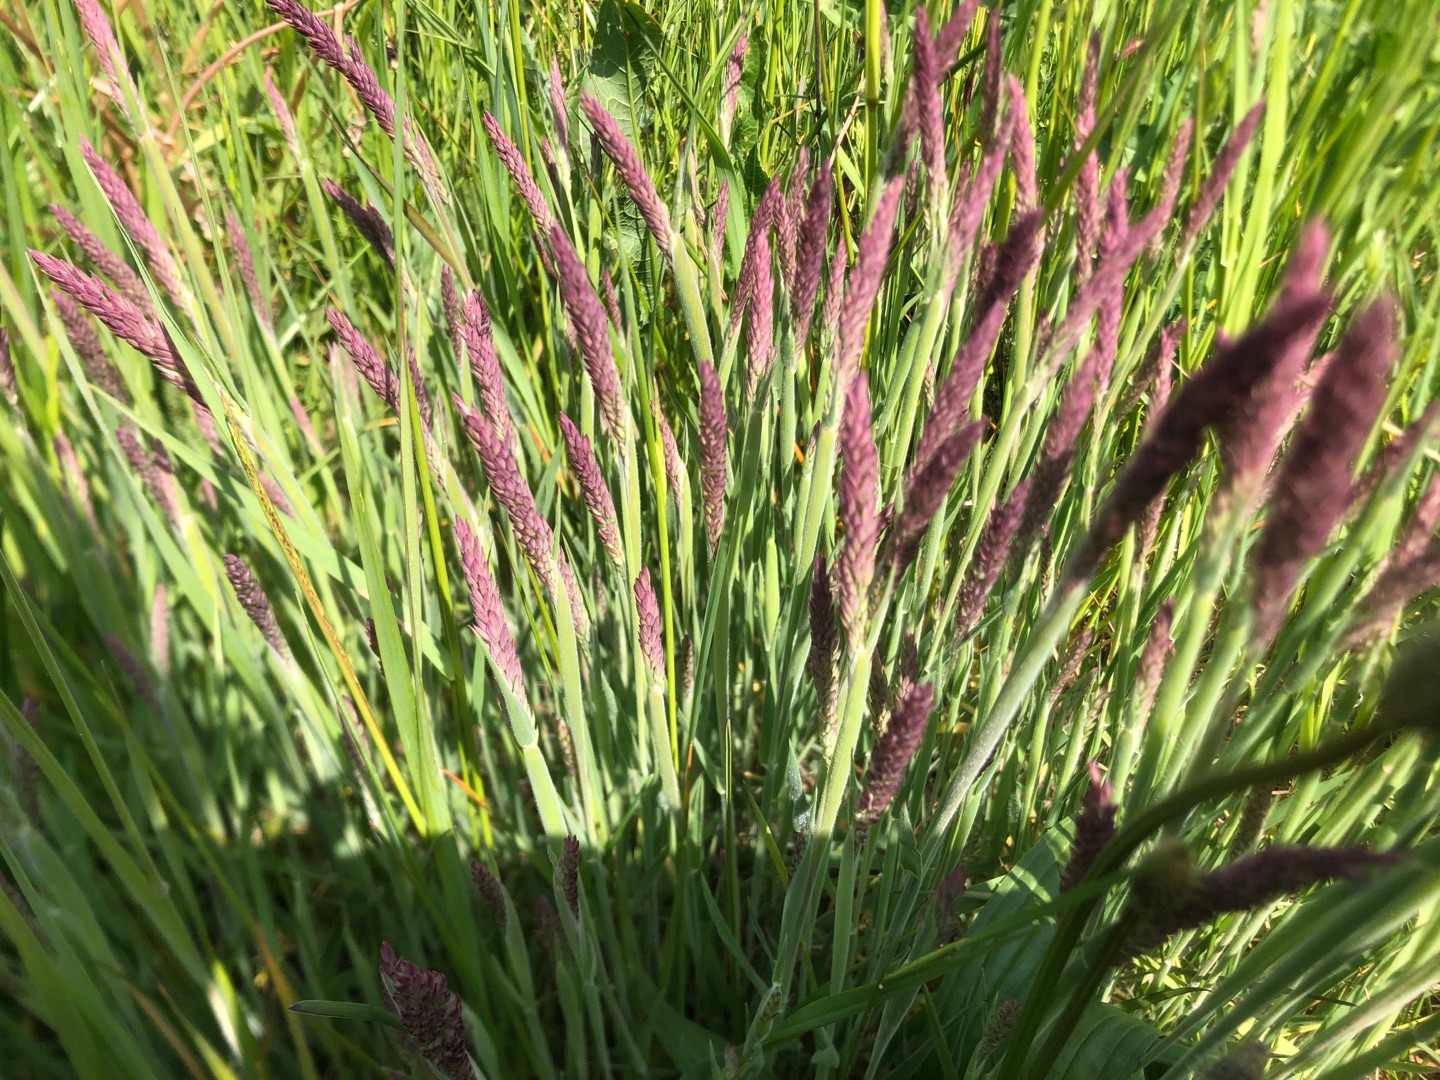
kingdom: Plantae
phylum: Tracheophyta
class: Liliopsida
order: Poales
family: Poaceae
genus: Holcus
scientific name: Holcus lanatus
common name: Fløjlsgræs
